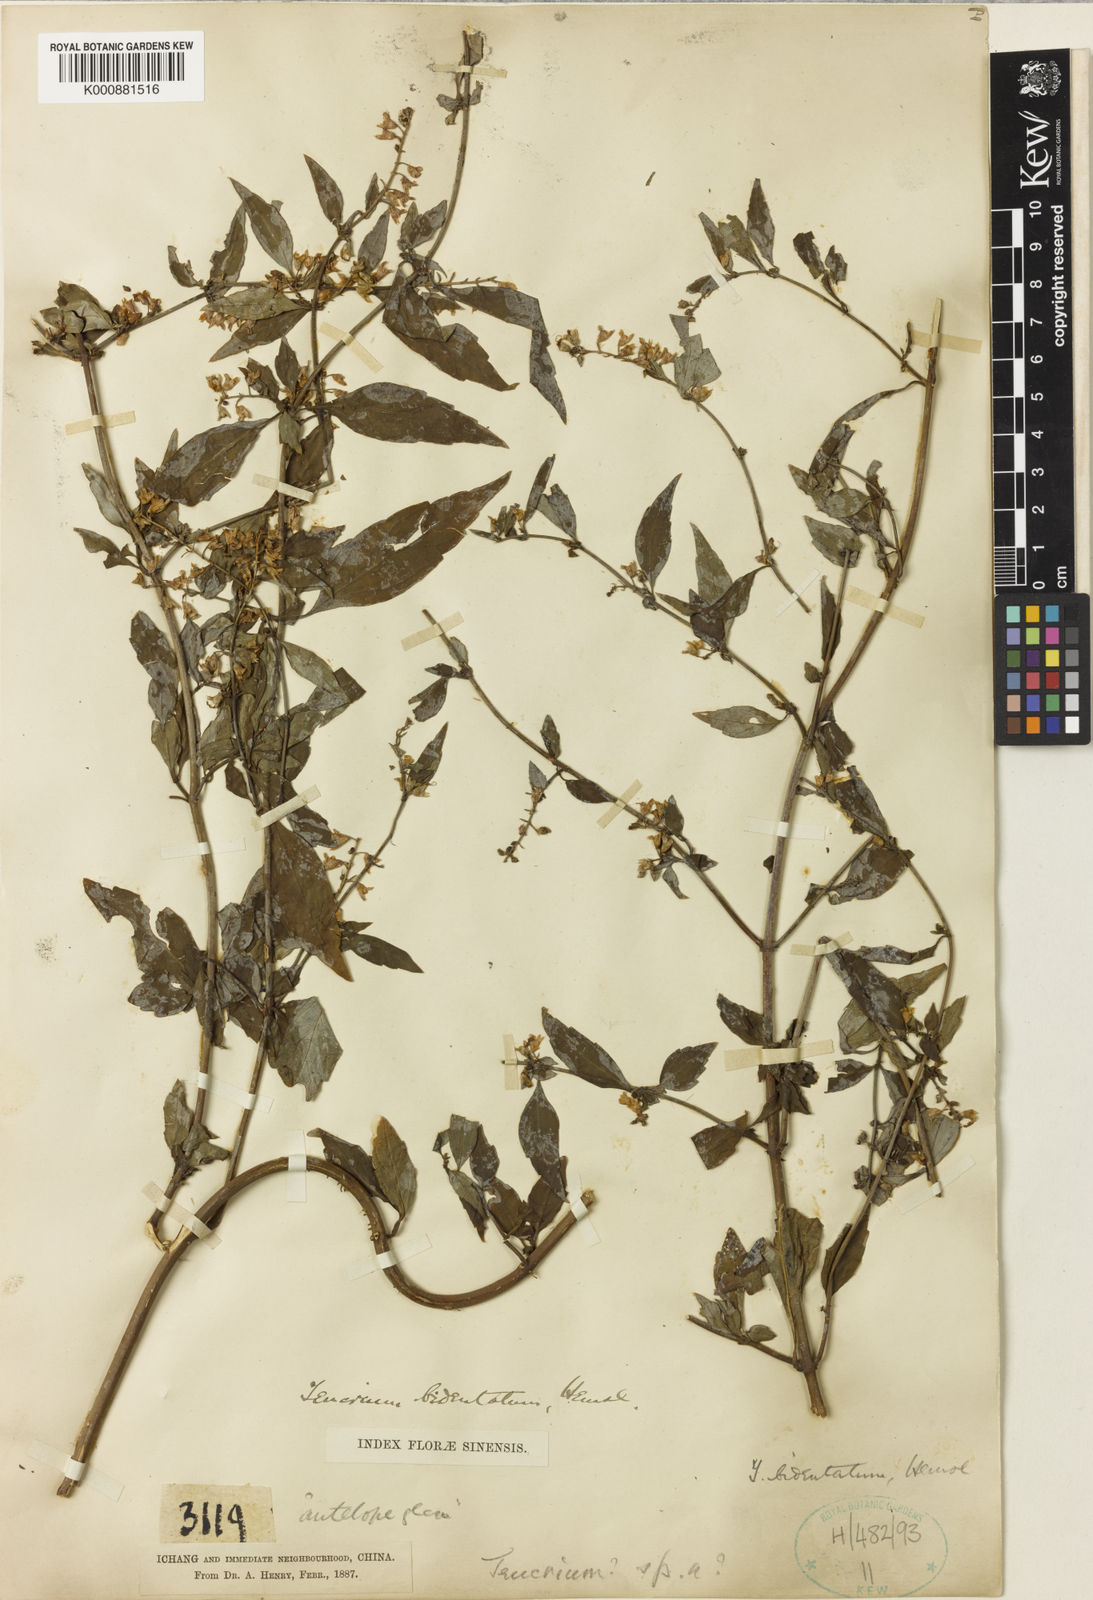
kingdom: Plantae
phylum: Tracheophyta
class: Magnoliopsida
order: Lamiales
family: Lamiaceae
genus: Teucrium
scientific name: Teucrium bidentatum
